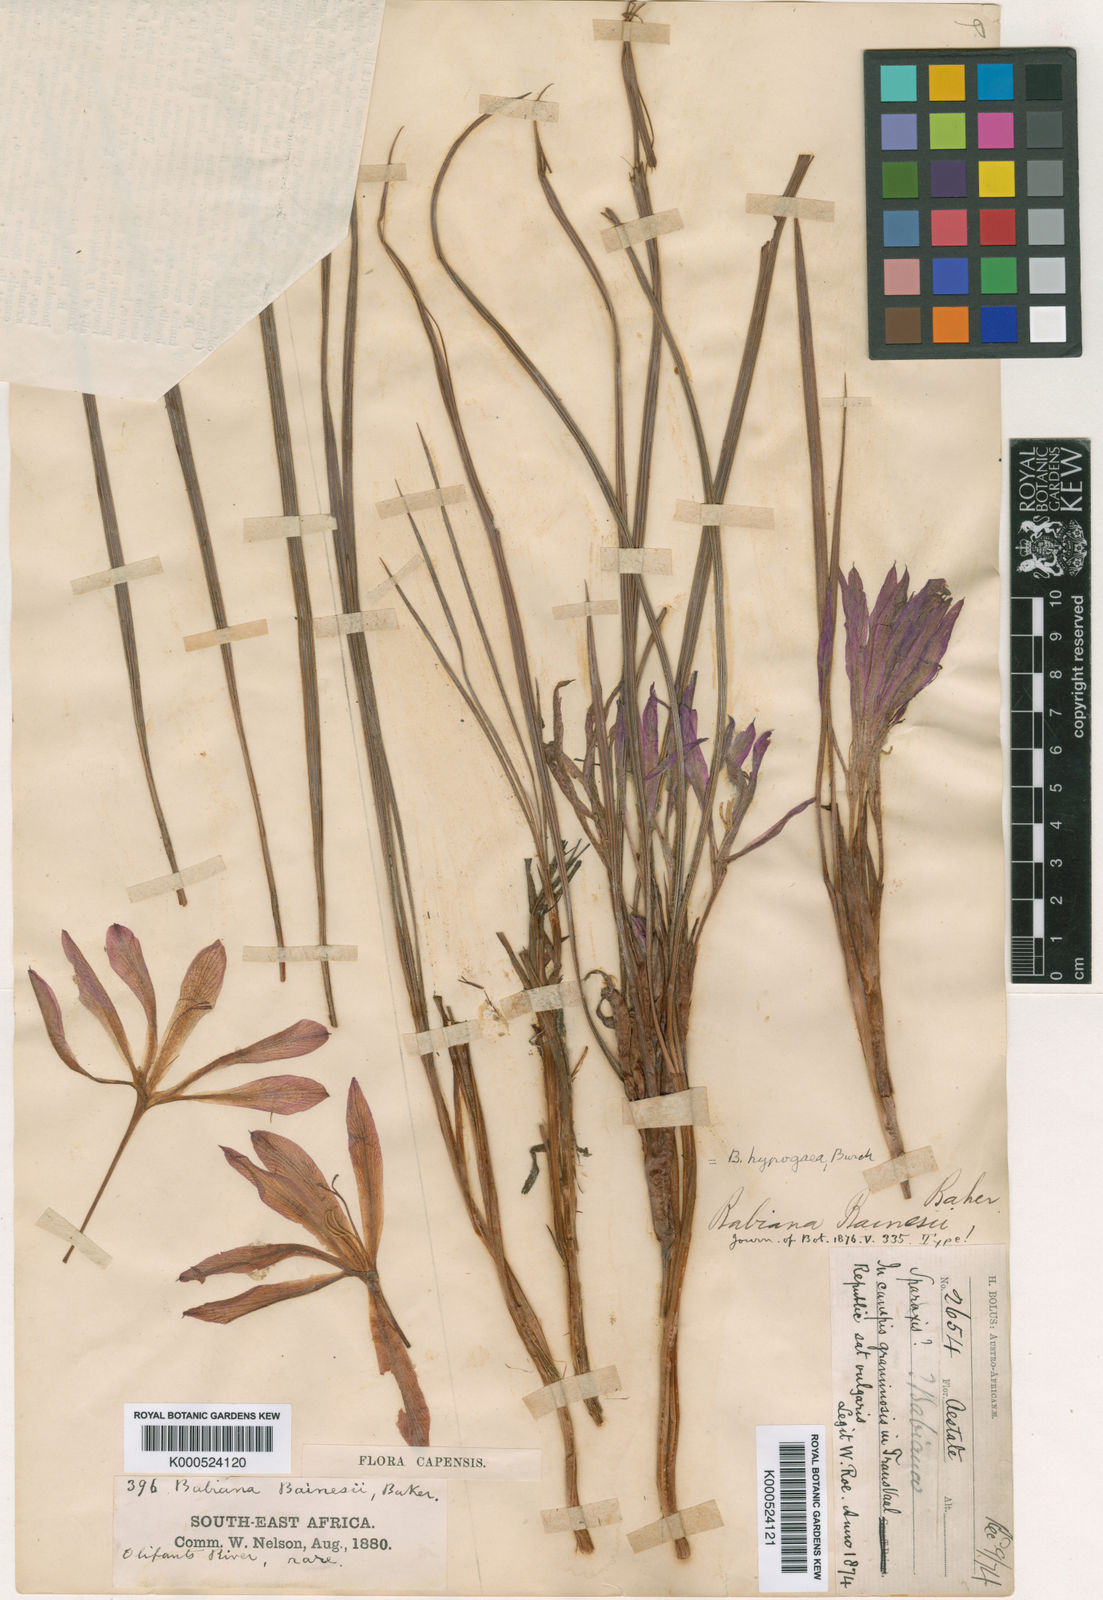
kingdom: Plantae
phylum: Tracheophyta
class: Liliopsida
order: Asparagales
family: Iridaceae
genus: Babiana
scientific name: Babiana bainesii
